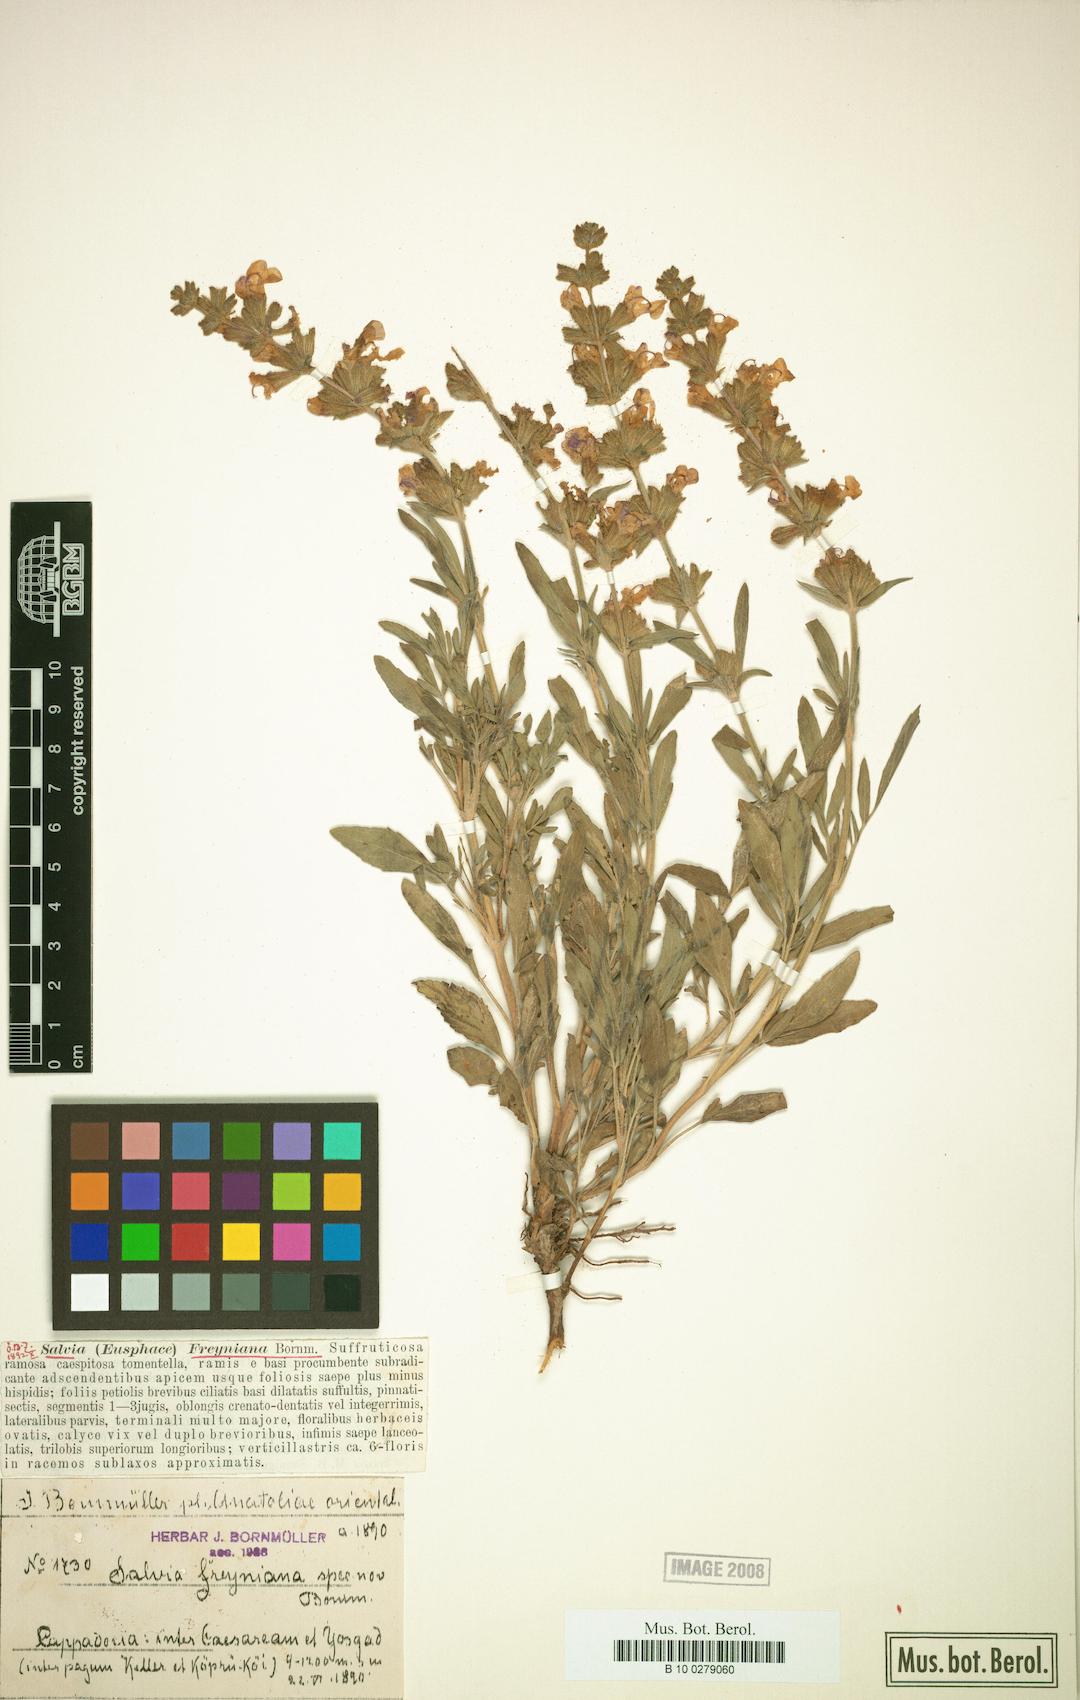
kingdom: Plantae
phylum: Tracheophyta
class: Magnoliopsida
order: Lamiales
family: Lamiaceae
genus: Salvia
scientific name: Salvia freyniana
